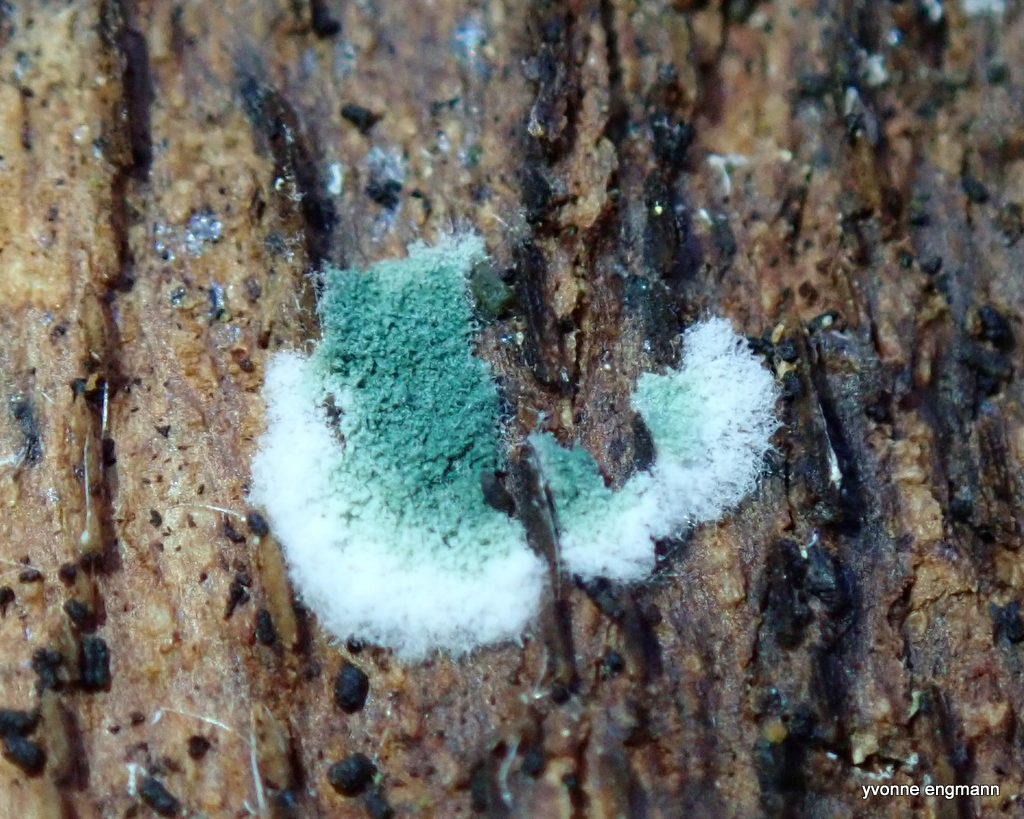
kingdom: Fungi
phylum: Ascomycota
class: Sordariomycetes
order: Hypocreales
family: Hypocreaceae
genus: Trichoderma
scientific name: Trichoderma
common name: kødkerne
